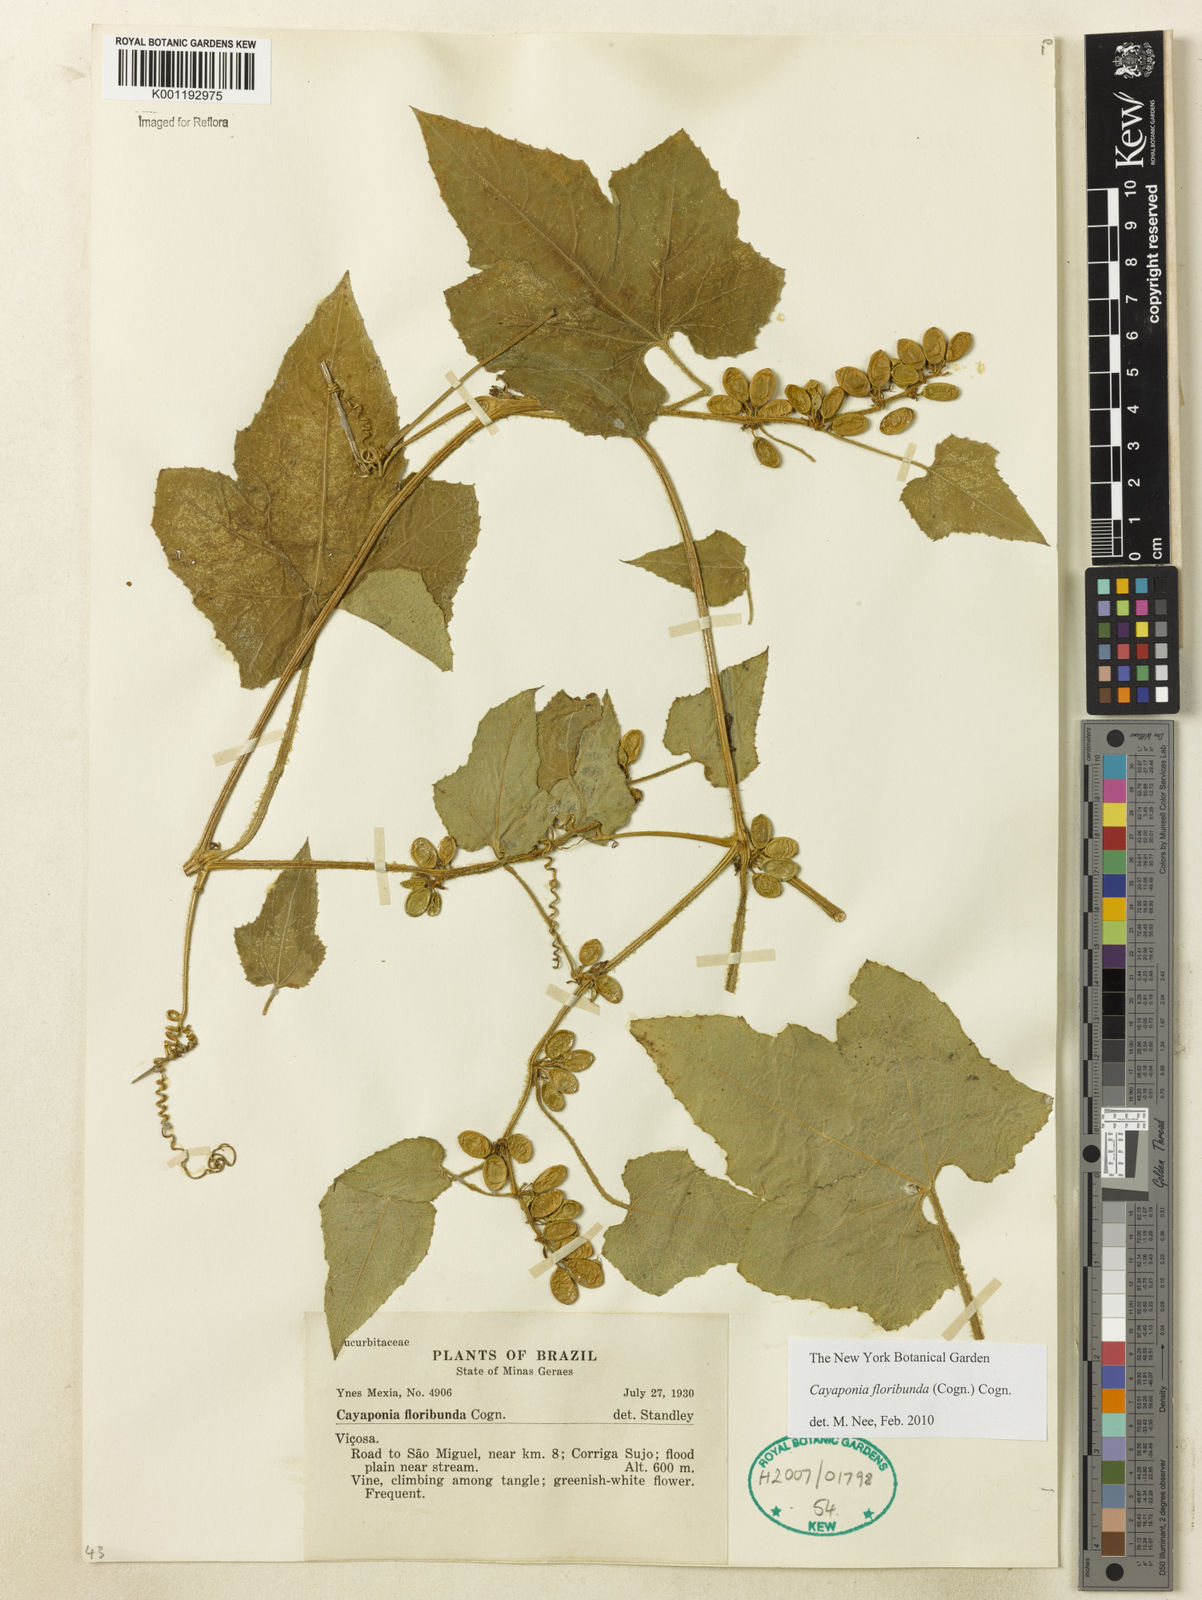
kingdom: Plantae
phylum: Tracheophyta
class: Magnoliopsida
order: Cucurbitales
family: Cucurbitaceae
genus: Cayaponia
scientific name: Cayaponia floribunda
